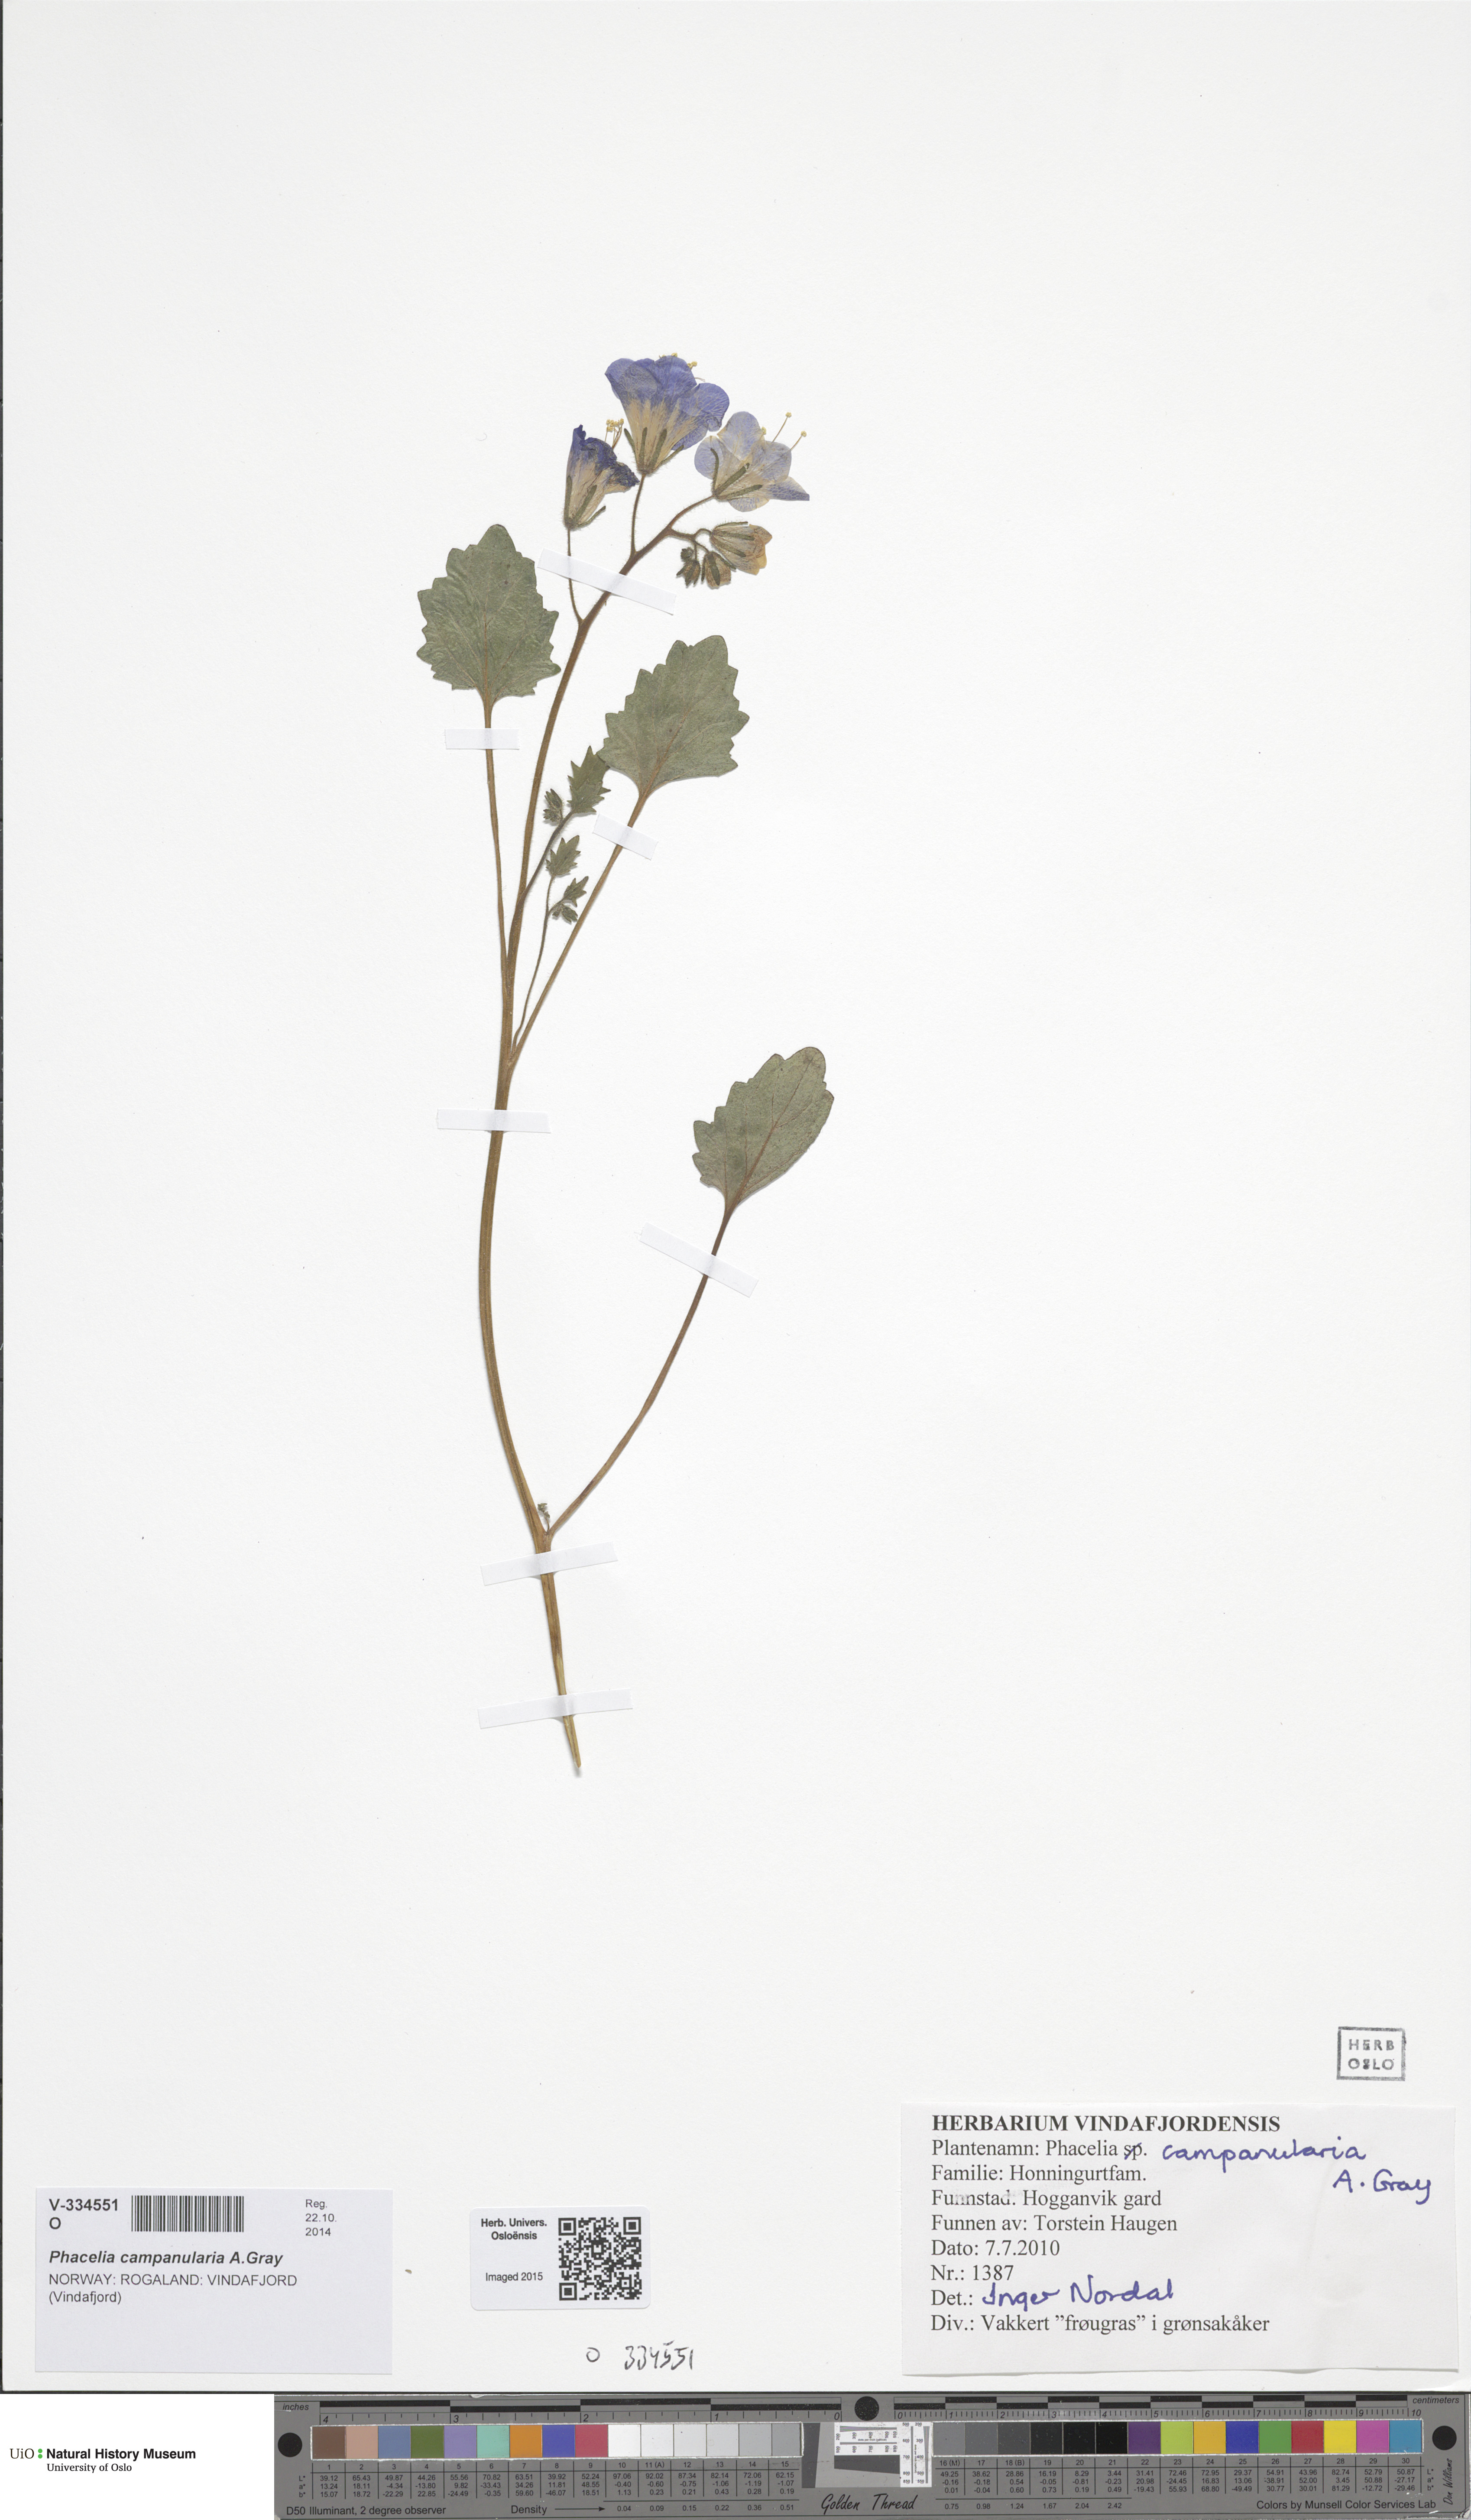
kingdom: Plantae
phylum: Tracheophyta
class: Magnoliopsida
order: Boraginales
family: Hydrophyllaceae
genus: Phacelia
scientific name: Phacelia campanularia
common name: California bluebell
